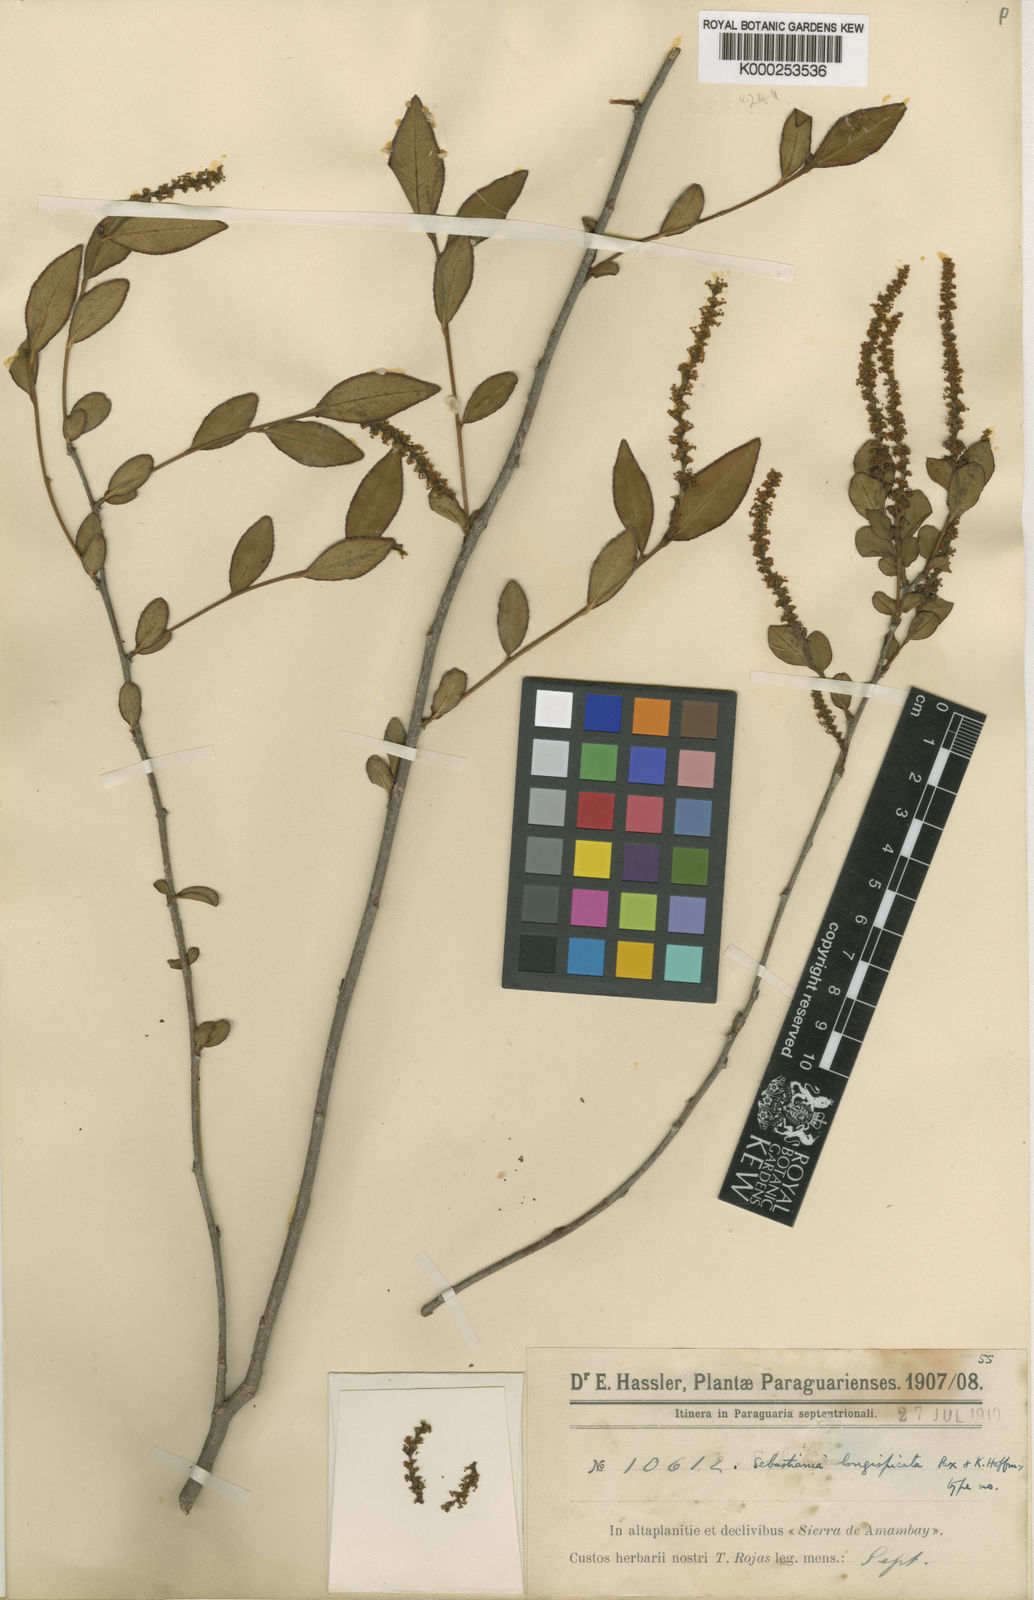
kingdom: Plantae
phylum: Tracheophyta
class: Magnoliopsida
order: Malpighiales
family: Euphorbiaceae
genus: Sebastiania
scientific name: Sebastiania longispicata
